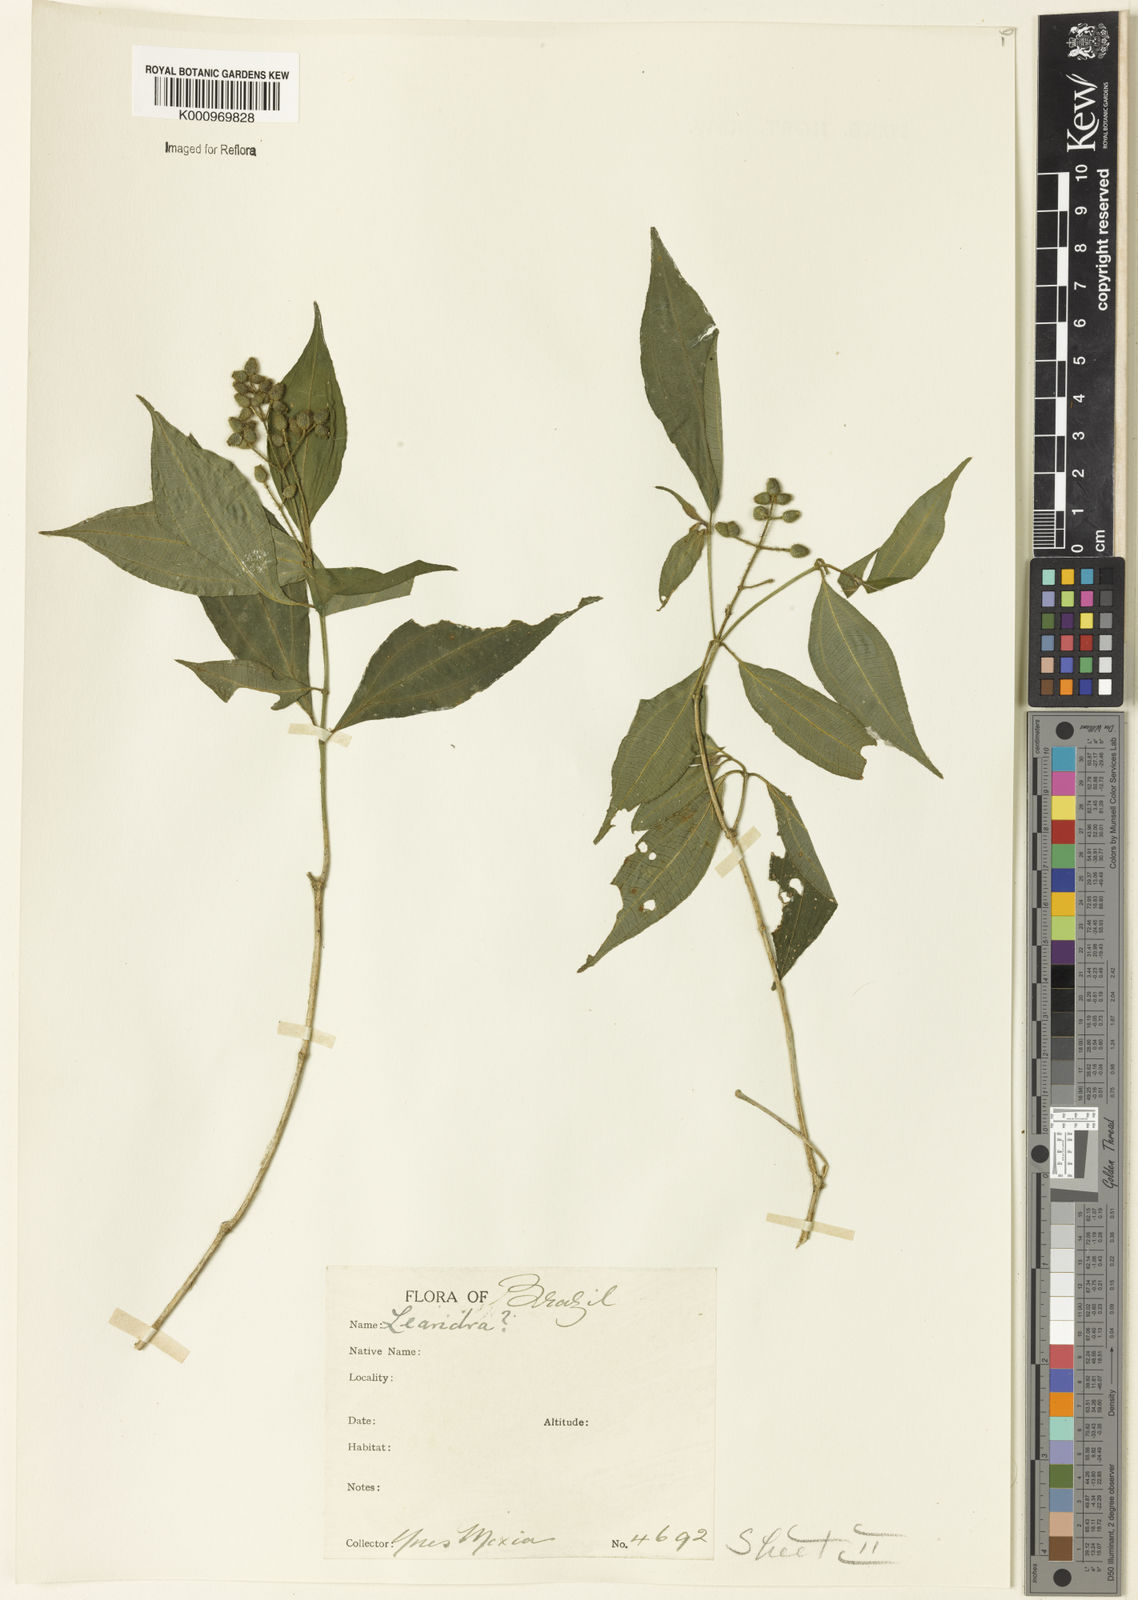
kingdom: Plantae
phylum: Tracheophyta
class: Magnoliopsida
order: Myrtales
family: Melastomataceae
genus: Miconia
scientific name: Miconia
